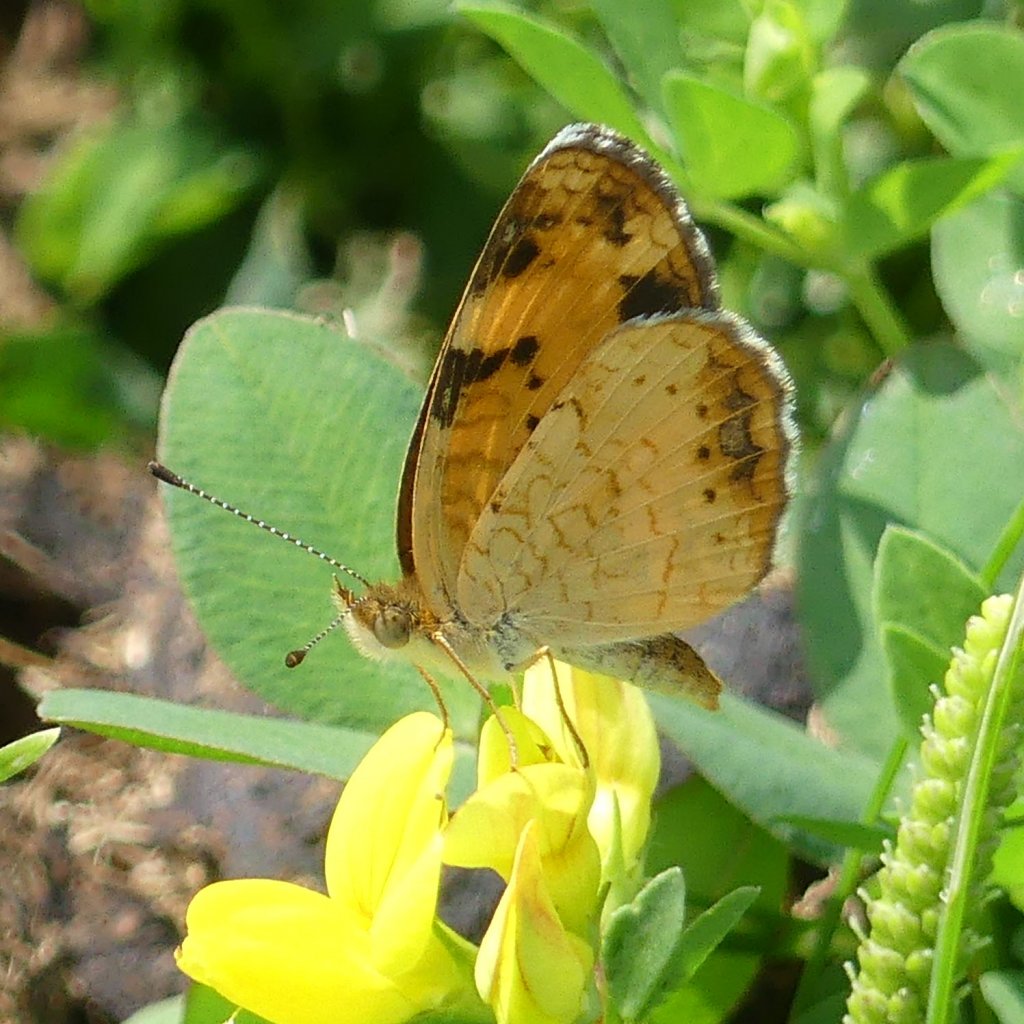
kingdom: Animalia
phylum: Arthropoda
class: Insecta
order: Lepidoptera
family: Nymphalidae
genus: Phyciodes
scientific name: Phyciodes tharos
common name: Northern Crescent
